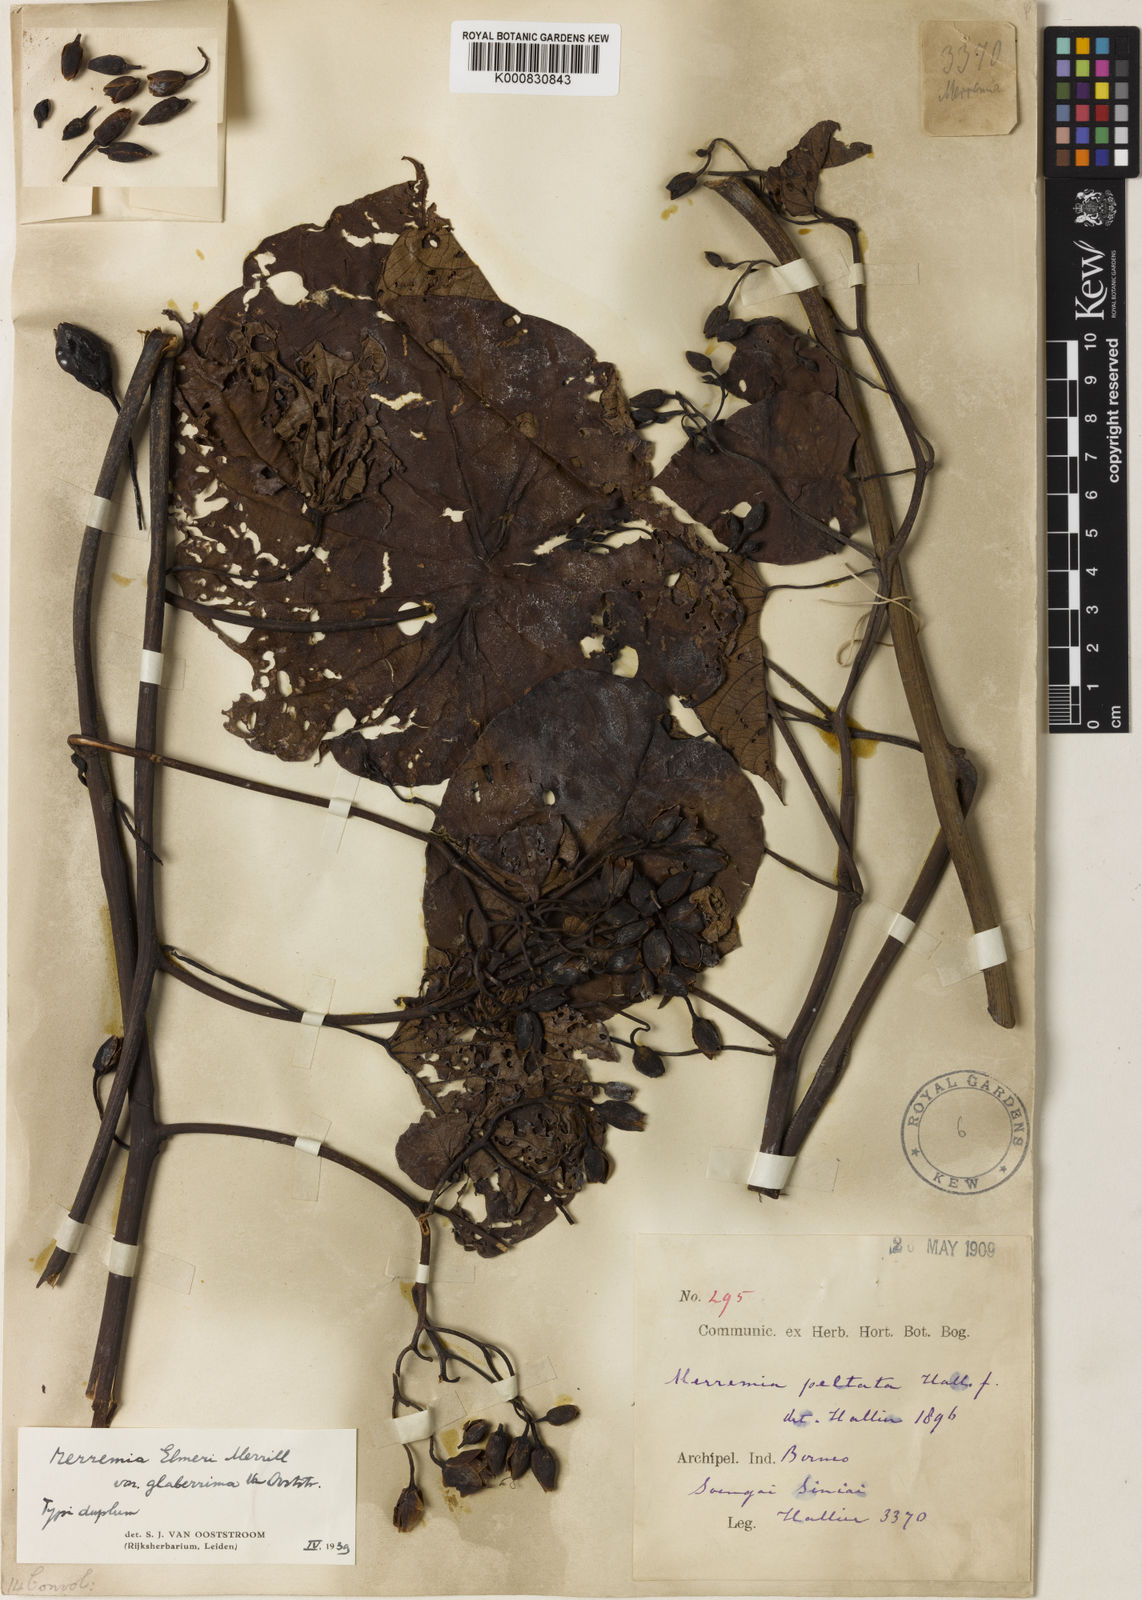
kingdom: Plantae
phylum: Tracheophyta
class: Magnoliopsida
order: Solanales
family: Convolvulaceae
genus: Decalobanthus
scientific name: Decalobanthus elmeri
